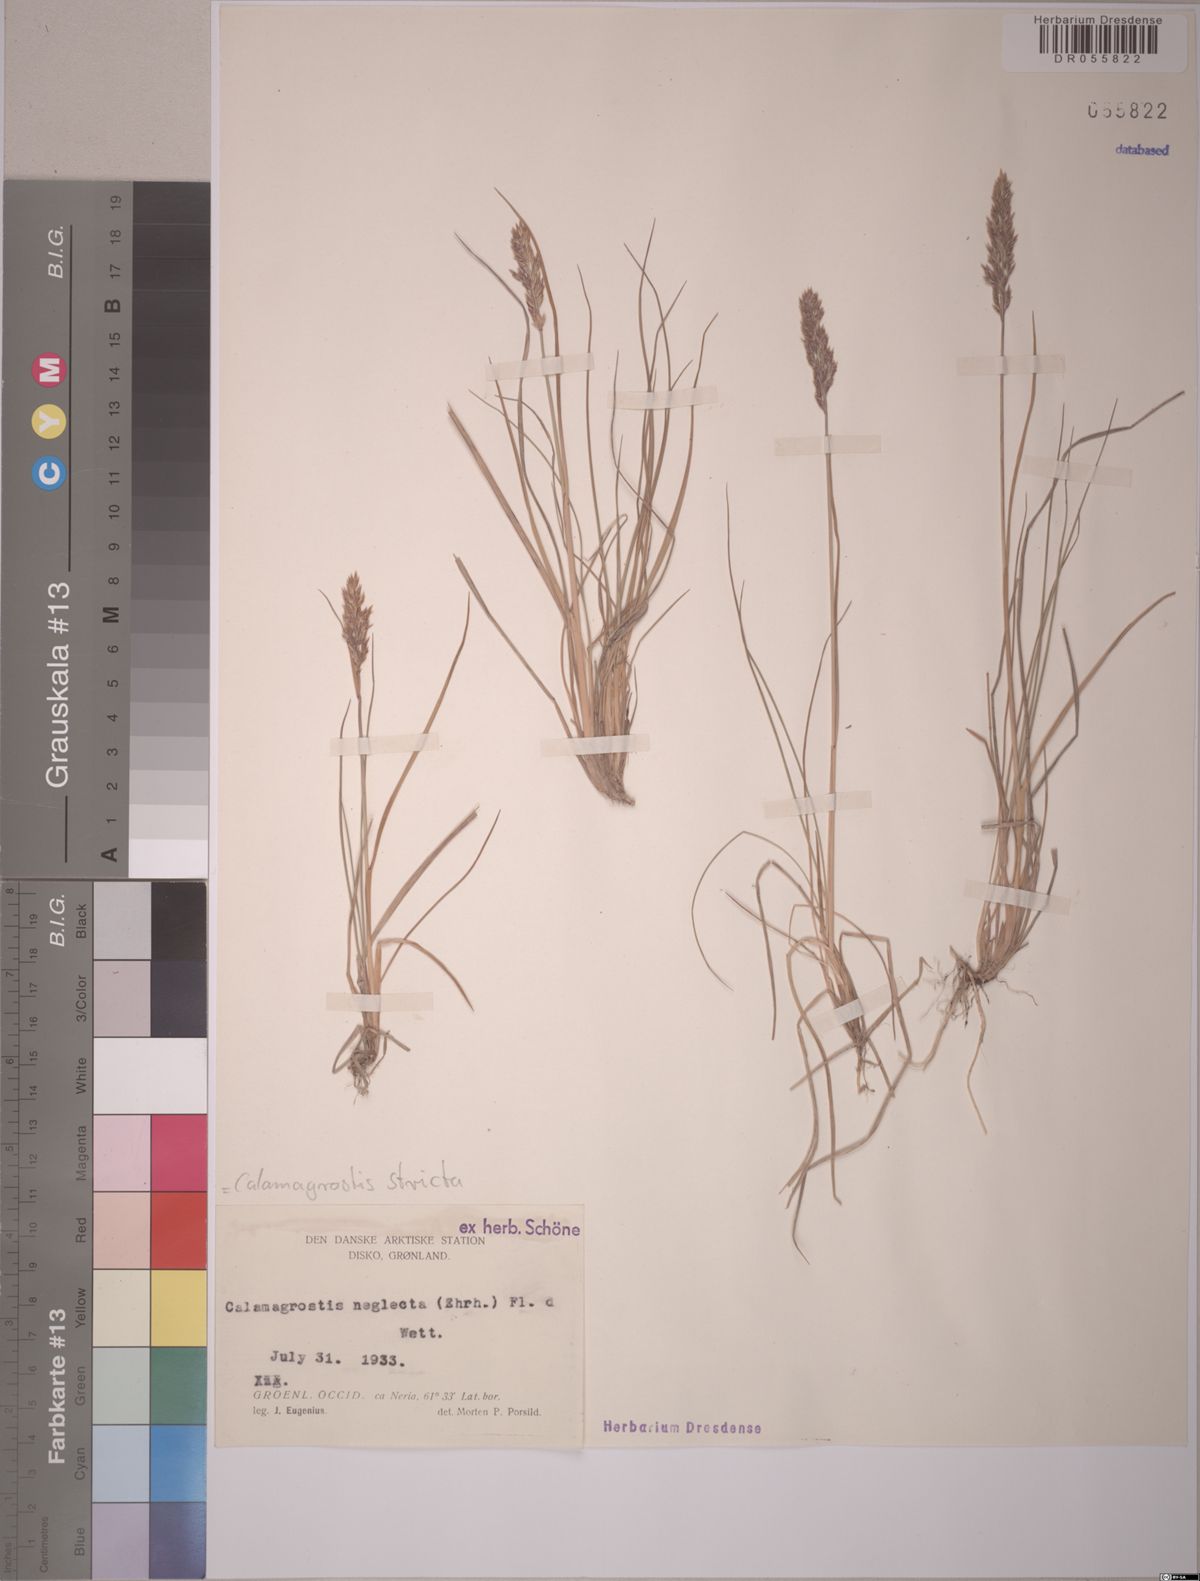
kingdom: Plantae
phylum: Tracheophyta
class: Liliopsida
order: Poales
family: Poaceae
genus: Calamagrostis
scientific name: Calamagrostis stricta
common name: Narrow small-reed
